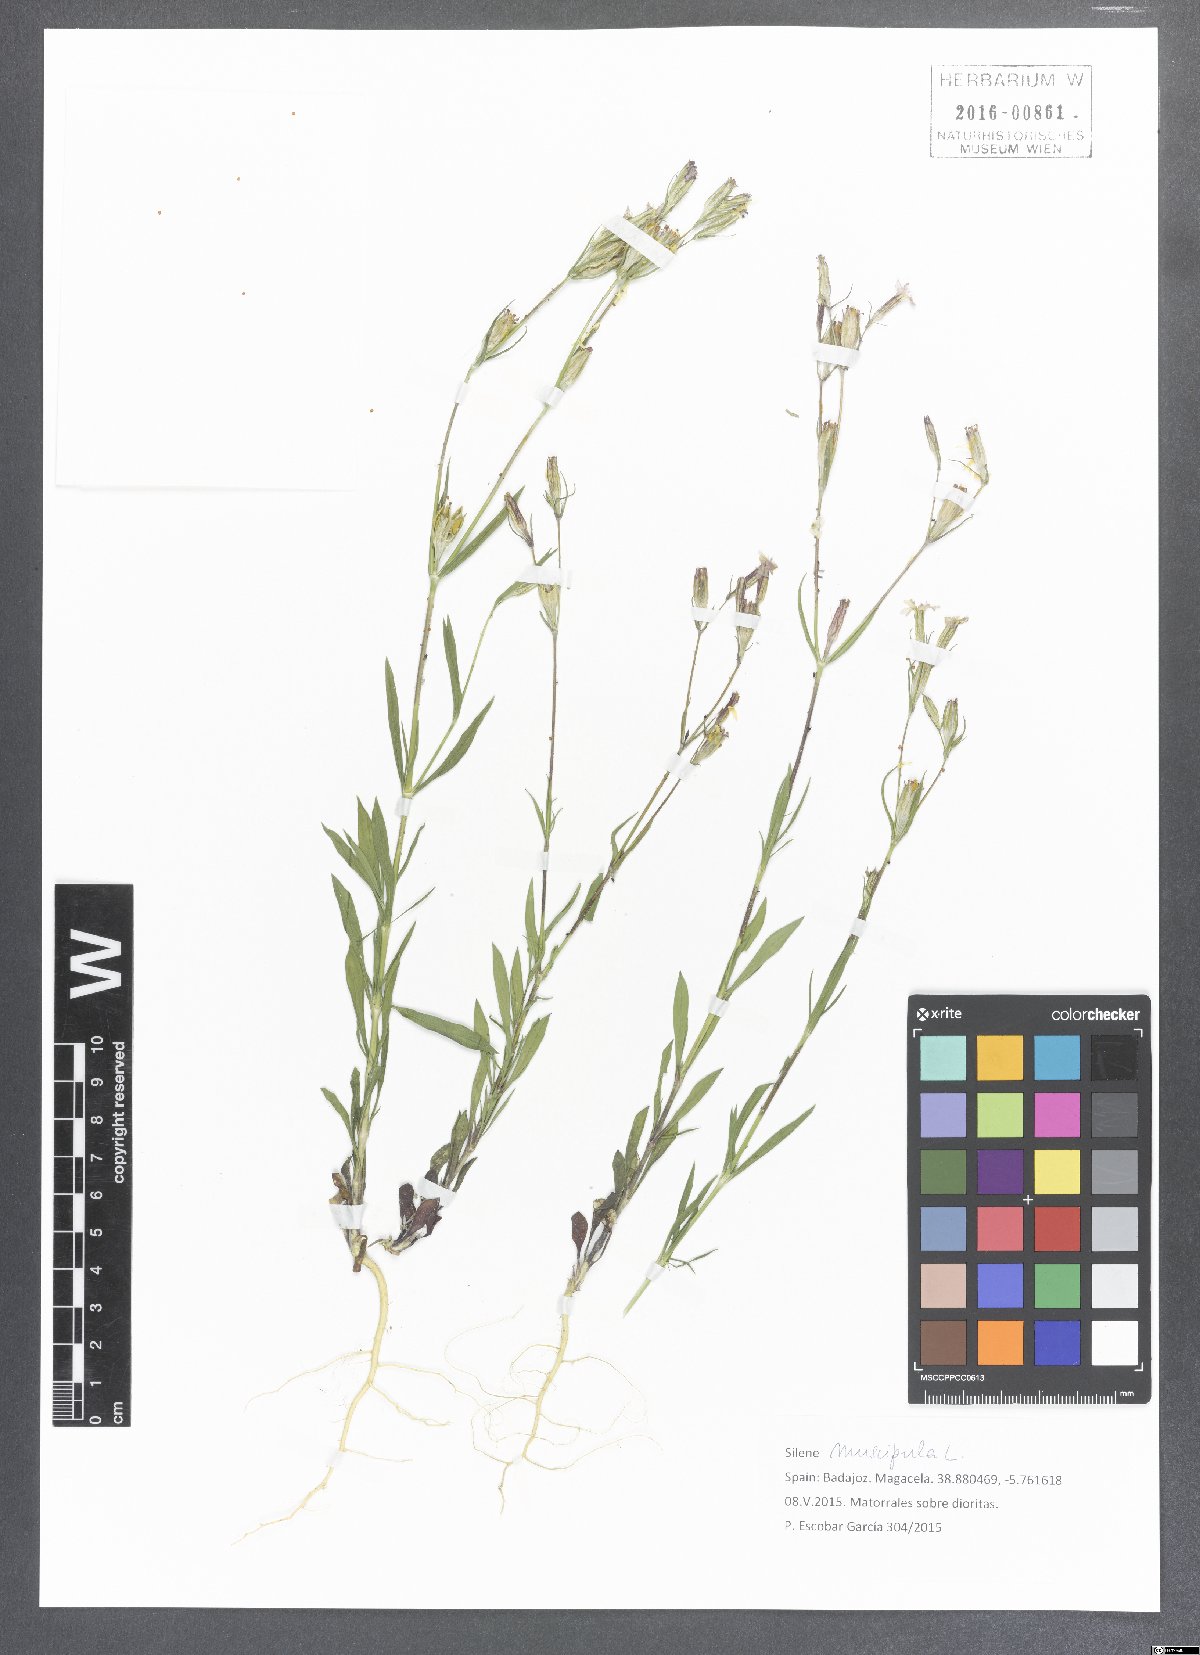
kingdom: Plantae
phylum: Tracheophyta
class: Magnoliopsida
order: Caryophyllales
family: Caryophyllaceae
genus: Silene
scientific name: Silene muscipula
